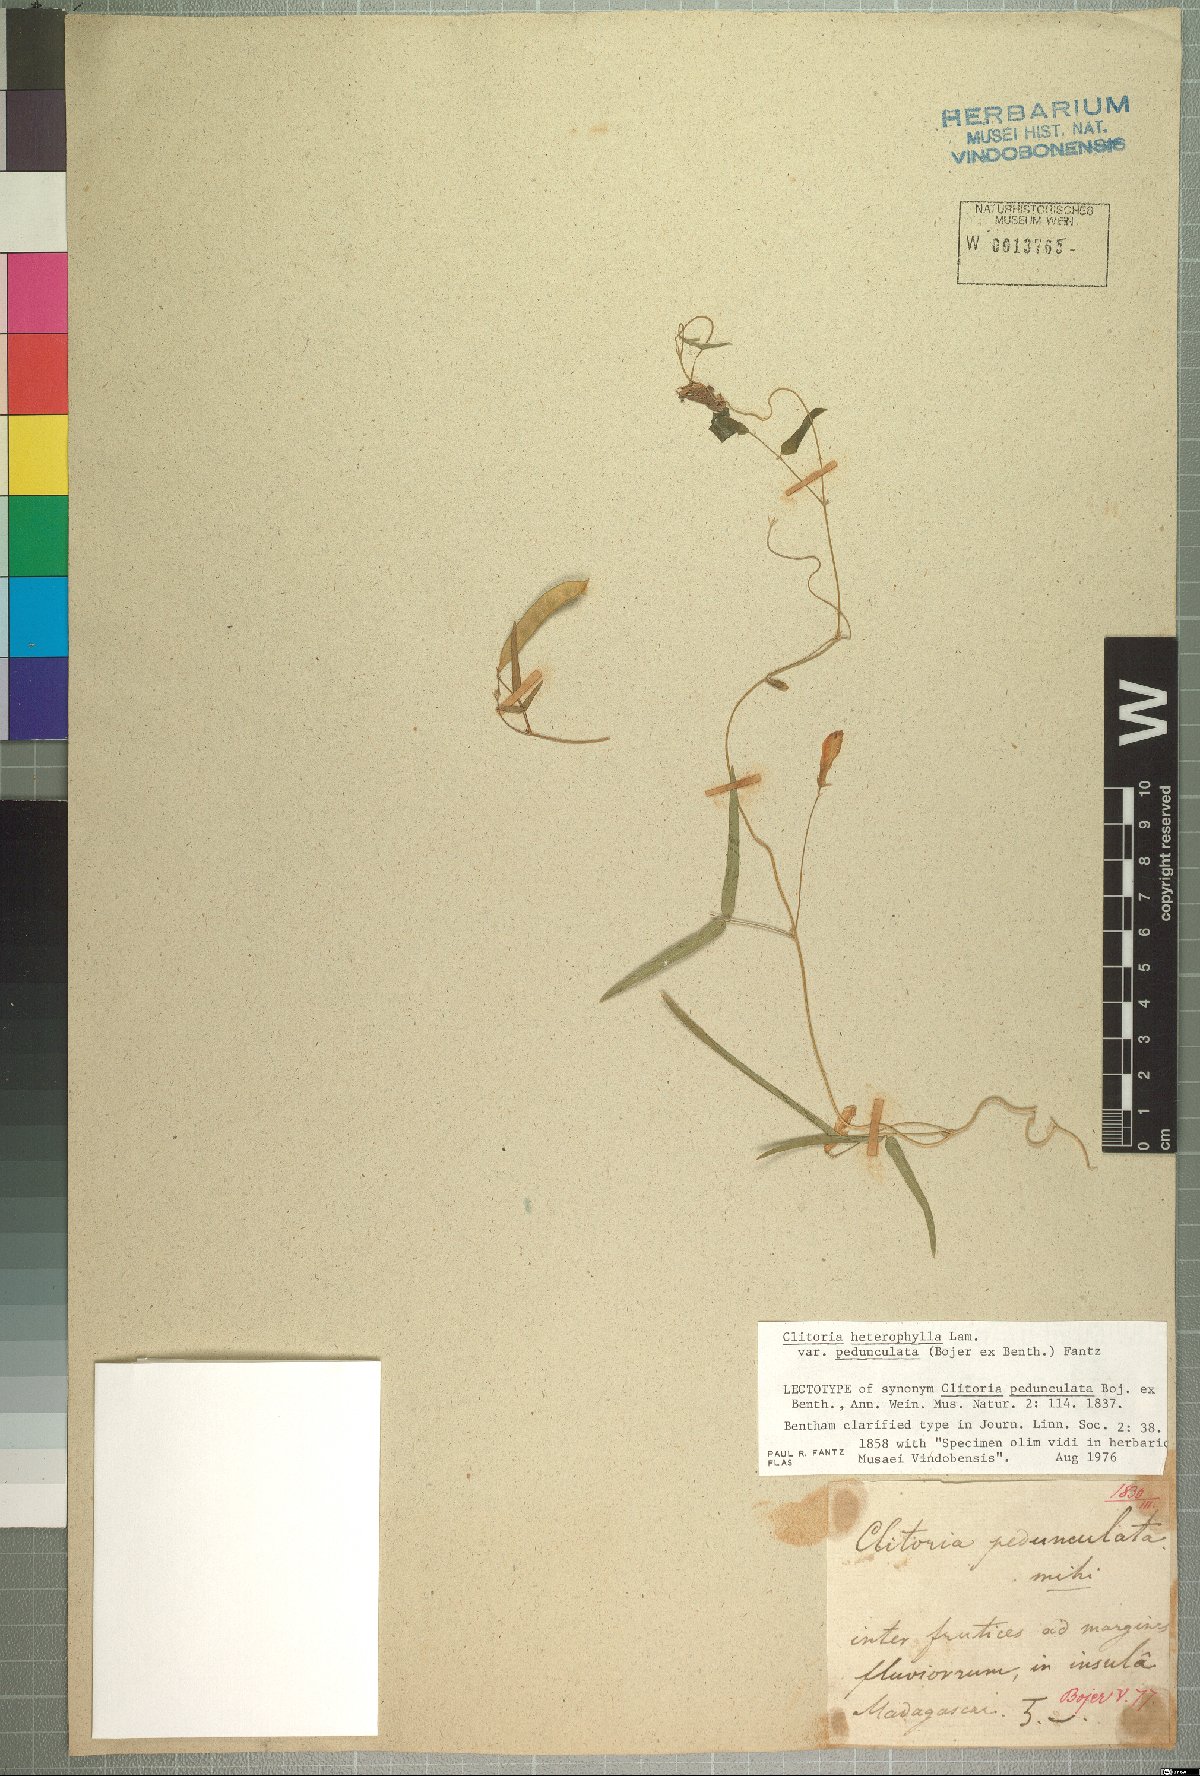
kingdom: Plantae
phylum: Tracheophyta
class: Magnoliopsida
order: Fabales
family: Fabaceae
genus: Clitoria
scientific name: Clitoria heterophylla
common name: Pigeonwings
